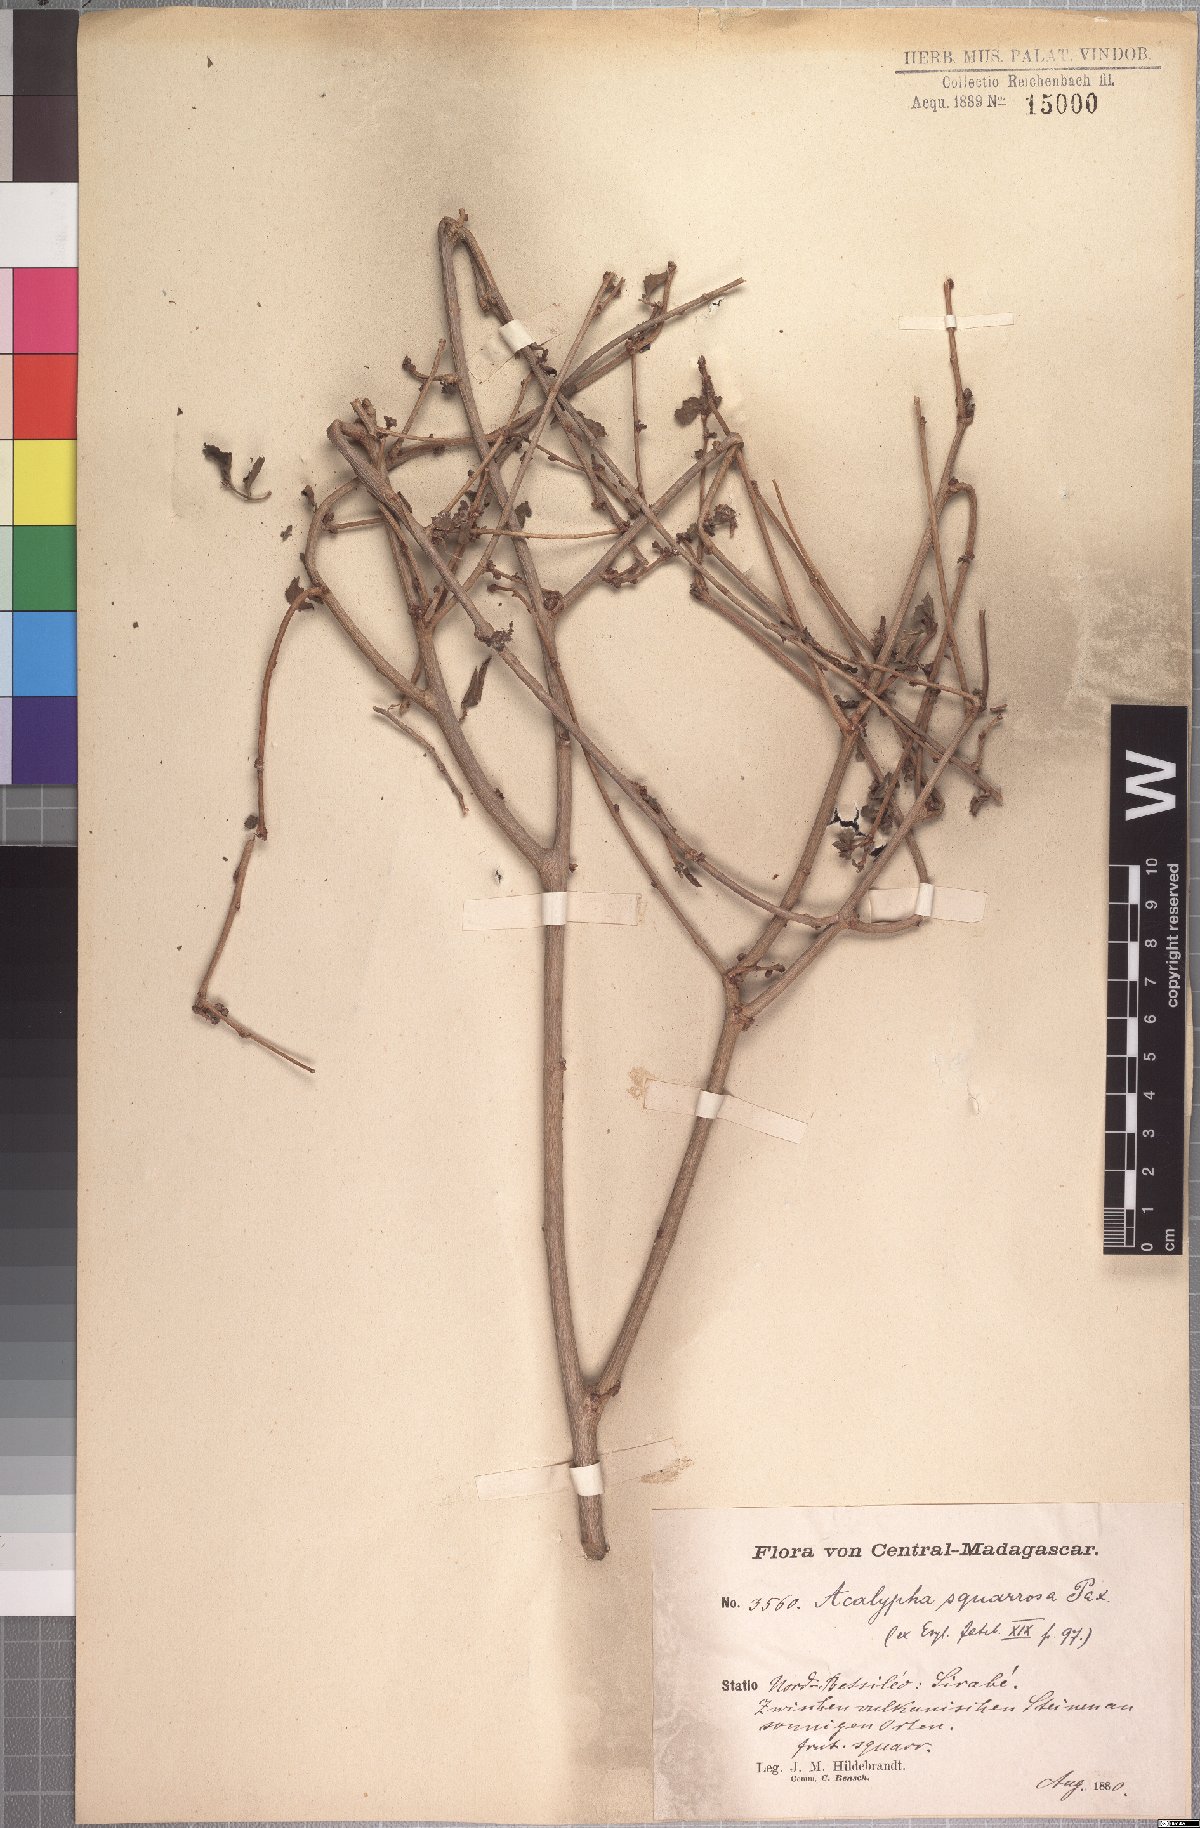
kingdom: Plantae
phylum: Tracheophyta
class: Magnoliopsida
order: Malpighiales
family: Euphorbiaceae
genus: Acalypha
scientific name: Acalypha spachiana
